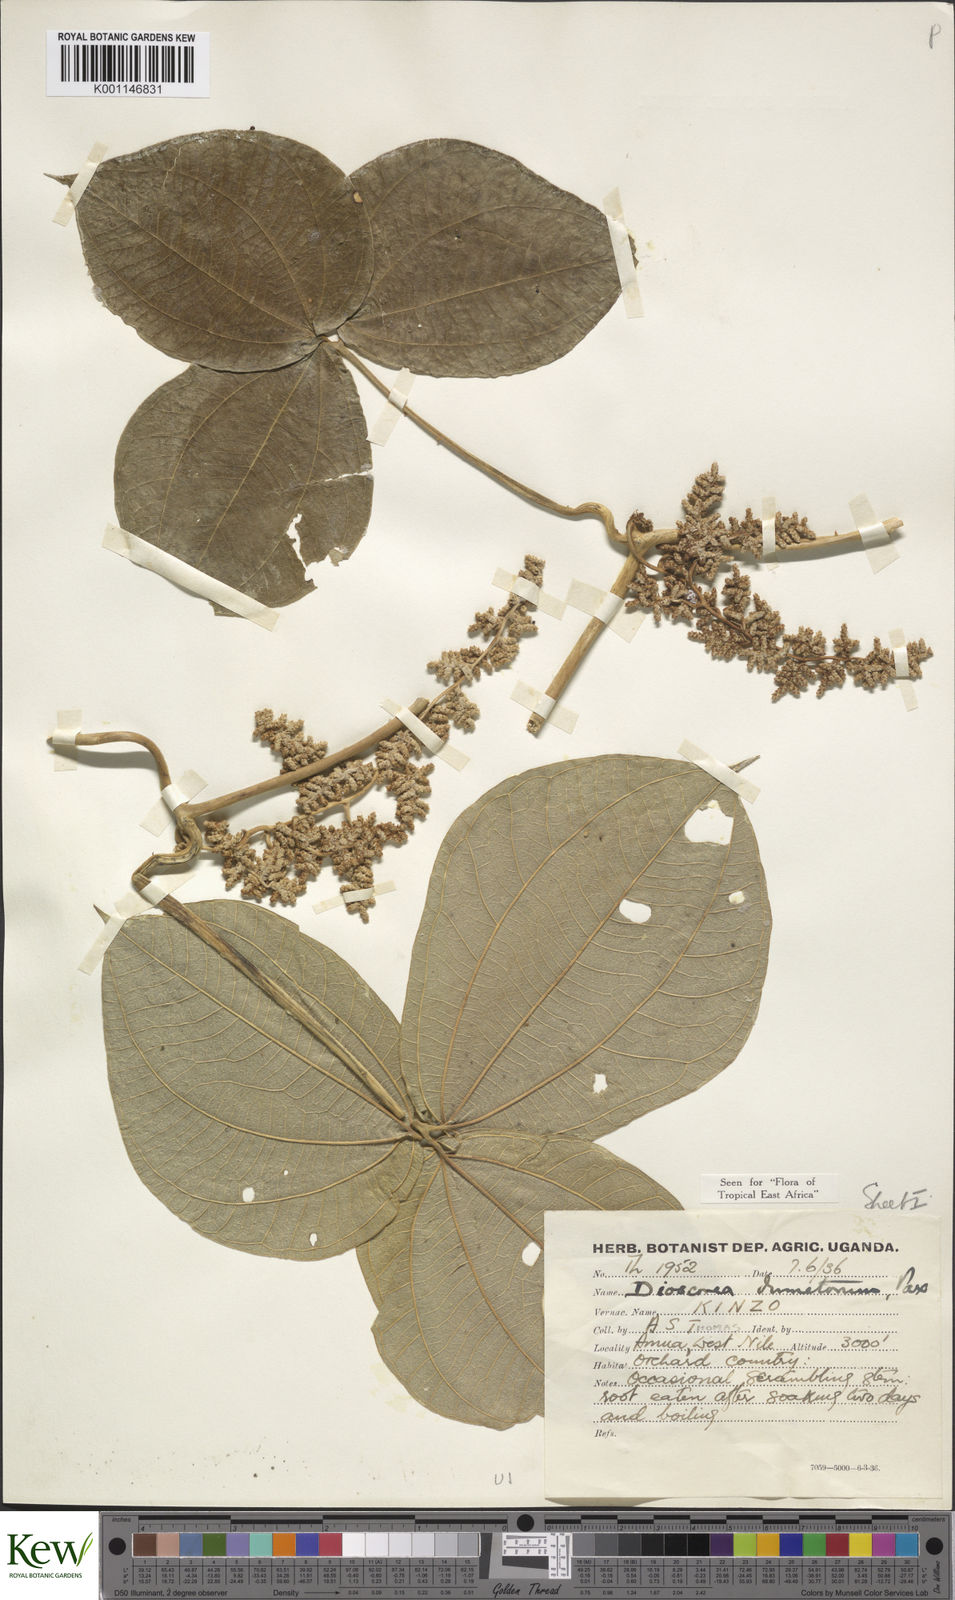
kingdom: Plantae
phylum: Tracheophyta
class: Liliopsida
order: Dioscoreales
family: Dioscoreaceae
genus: Dioscorea
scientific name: Dioscorea dumetorum
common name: African bitter yam
